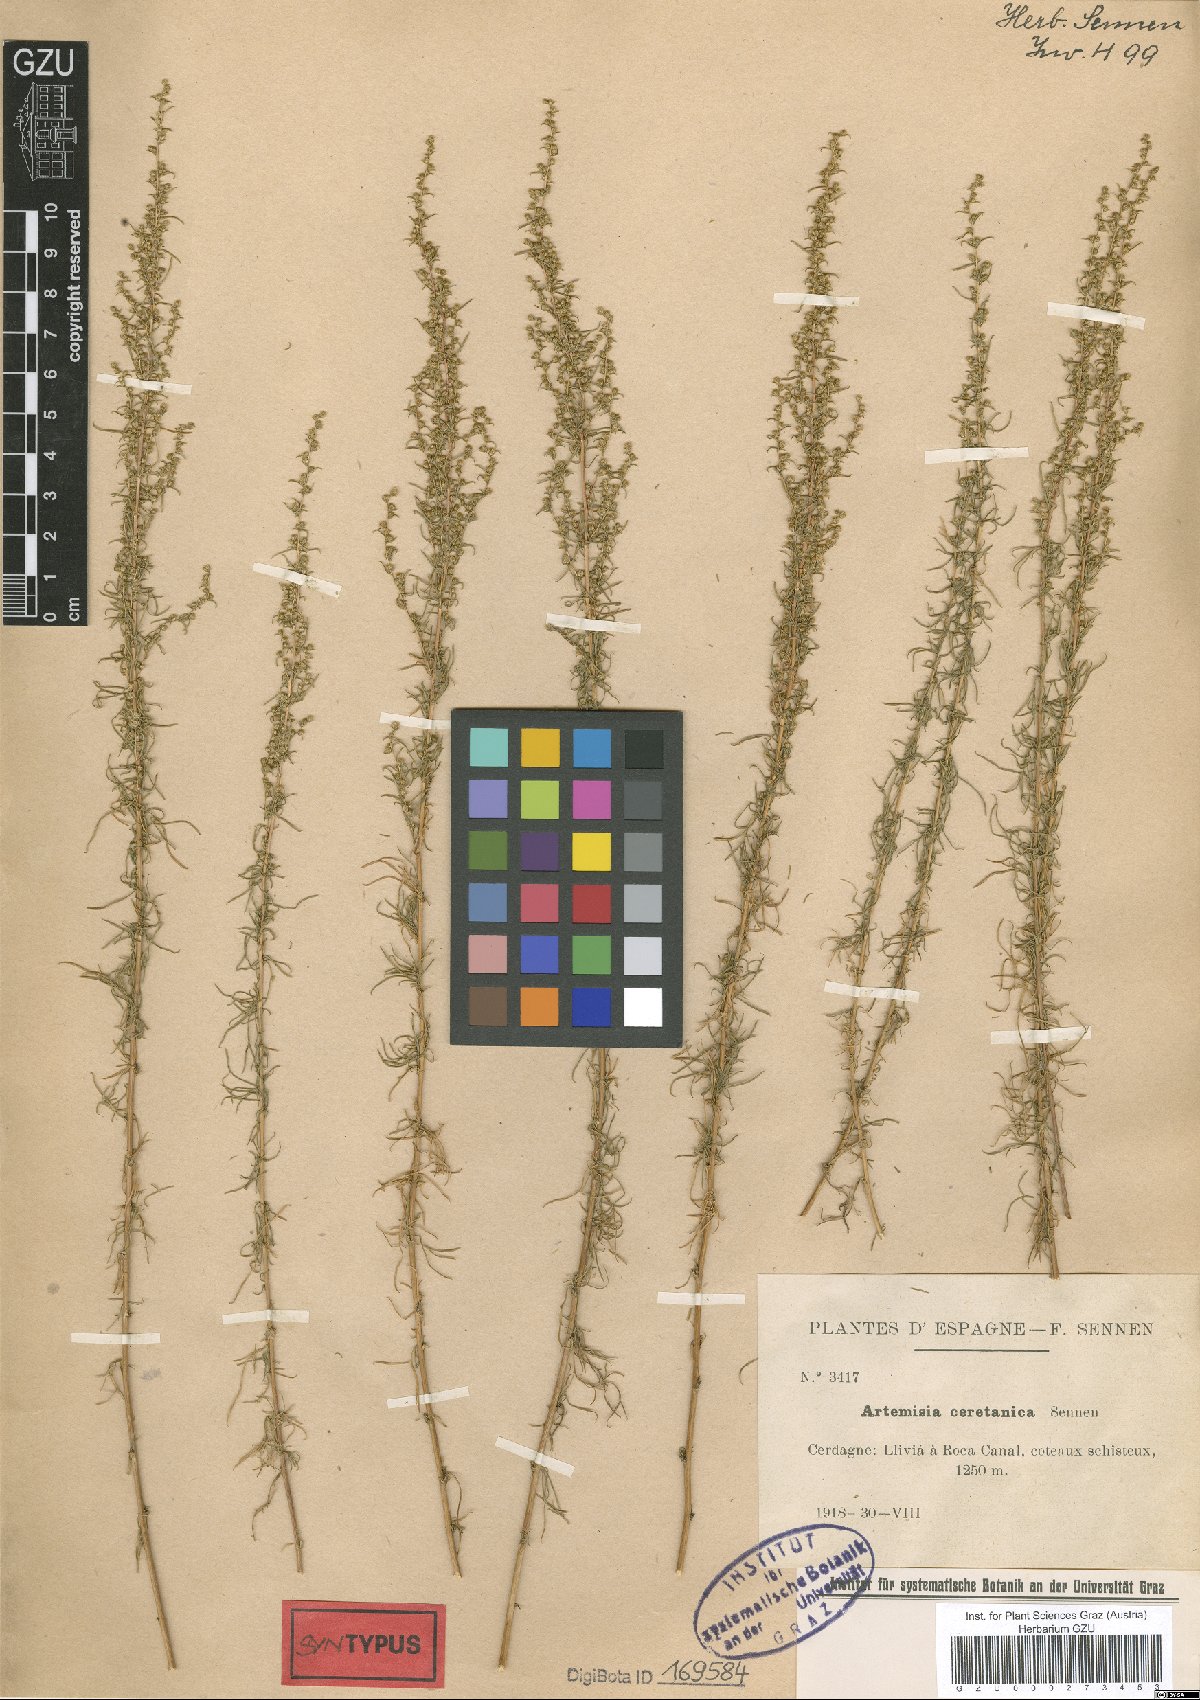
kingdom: Plantae
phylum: Tracheophyta
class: Magnoliopsida
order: Asterales
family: Asteraceae
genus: Artemisia
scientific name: Artemisia ceretana
